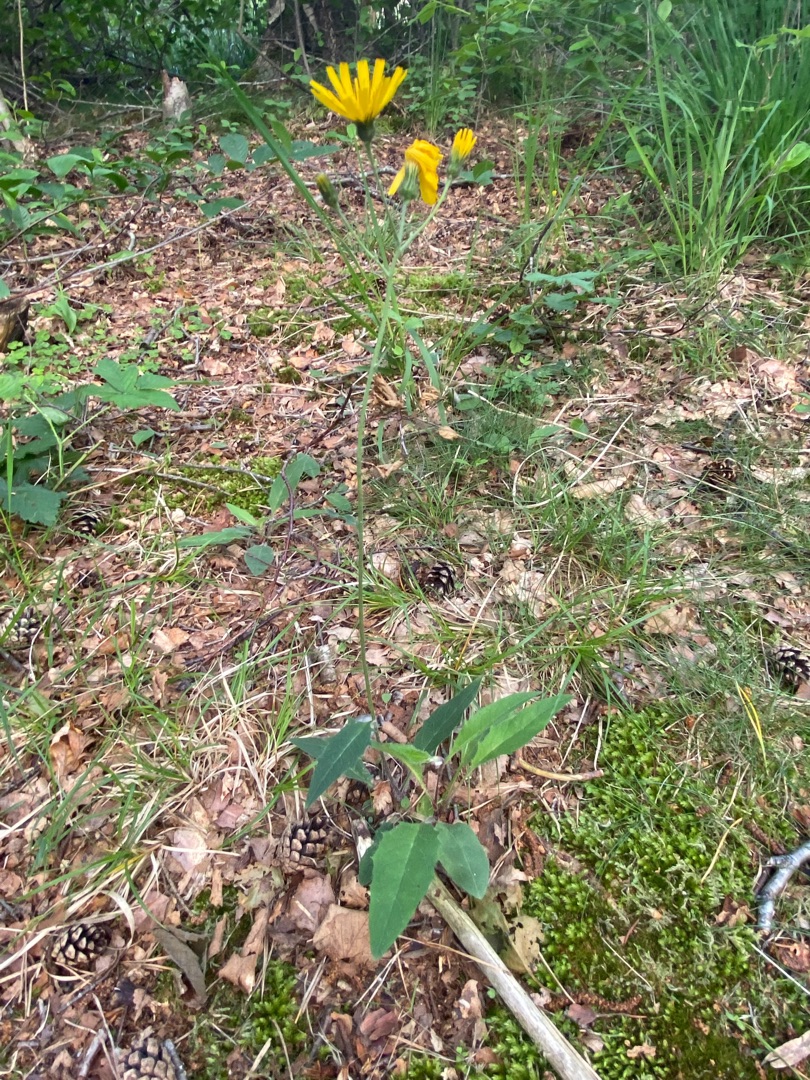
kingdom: Plantae
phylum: Tracheophyta
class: Magnoliopsida
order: Asterales
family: Asteraceae
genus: Hieracium
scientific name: Hieracium
